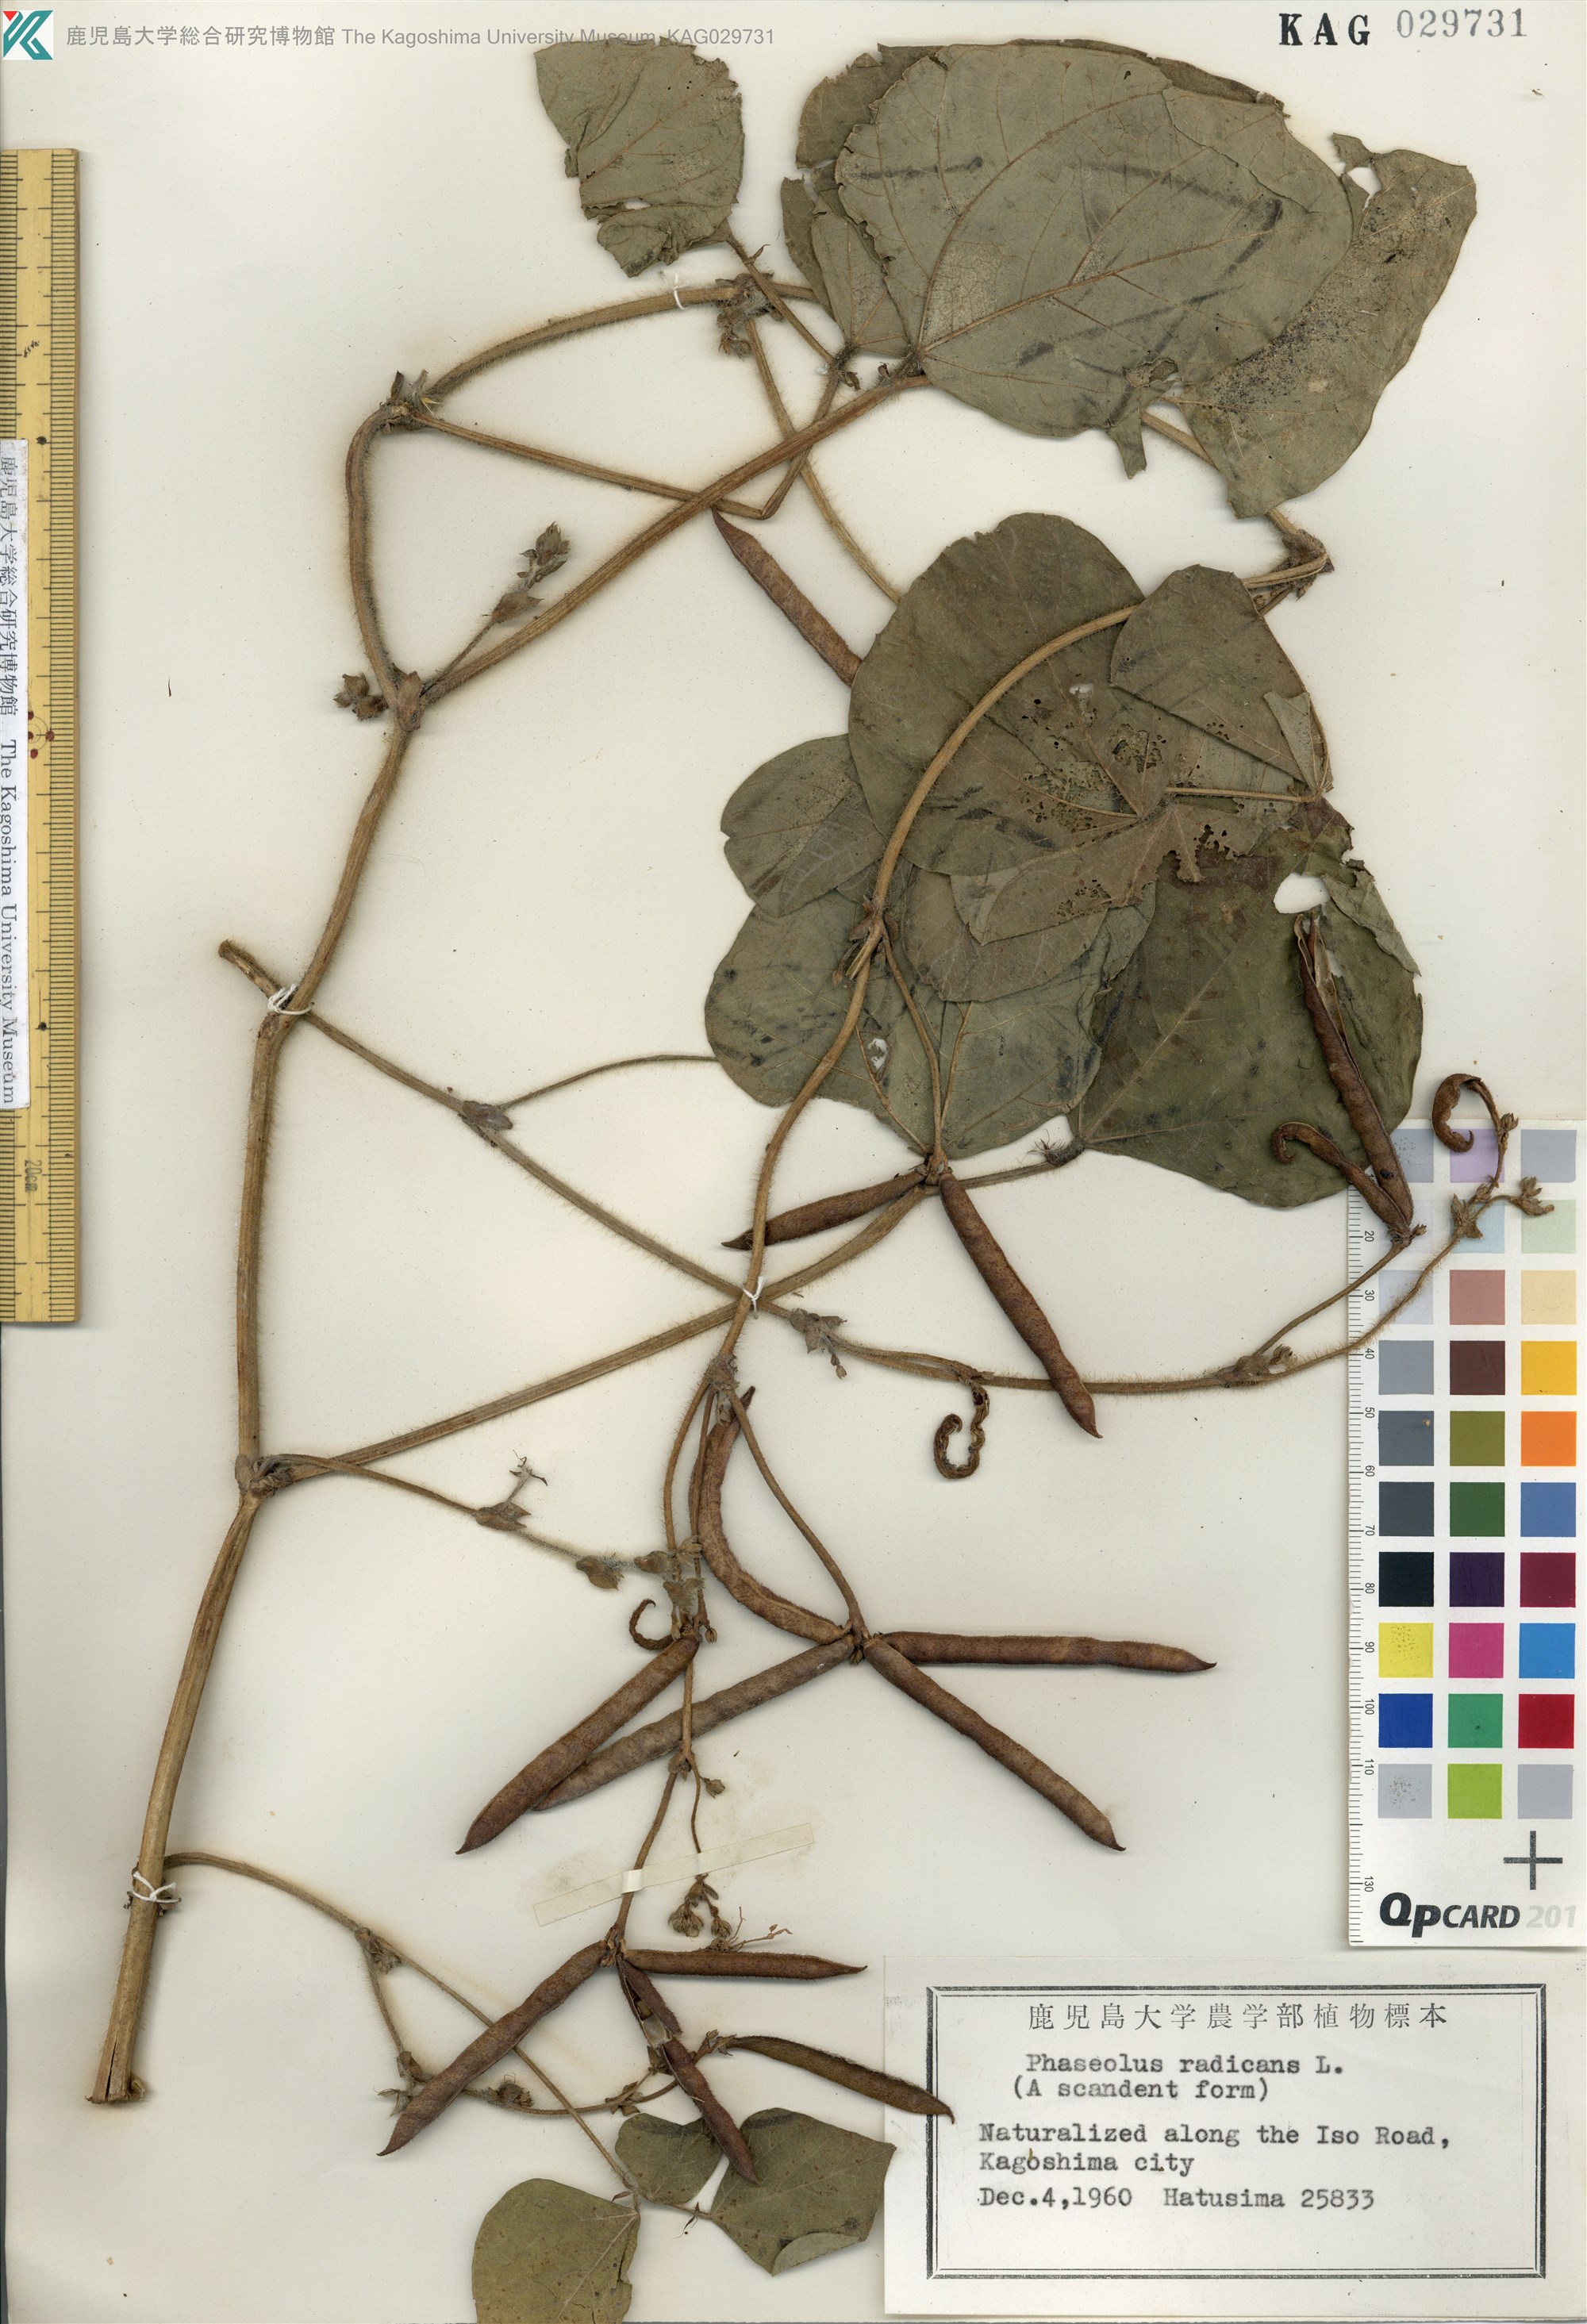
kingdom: Plantae
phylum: Tracheophyta
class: Magnoliopsida
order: Fabales
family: Fabaceae
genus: Vigna
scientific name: Vigna radiata
